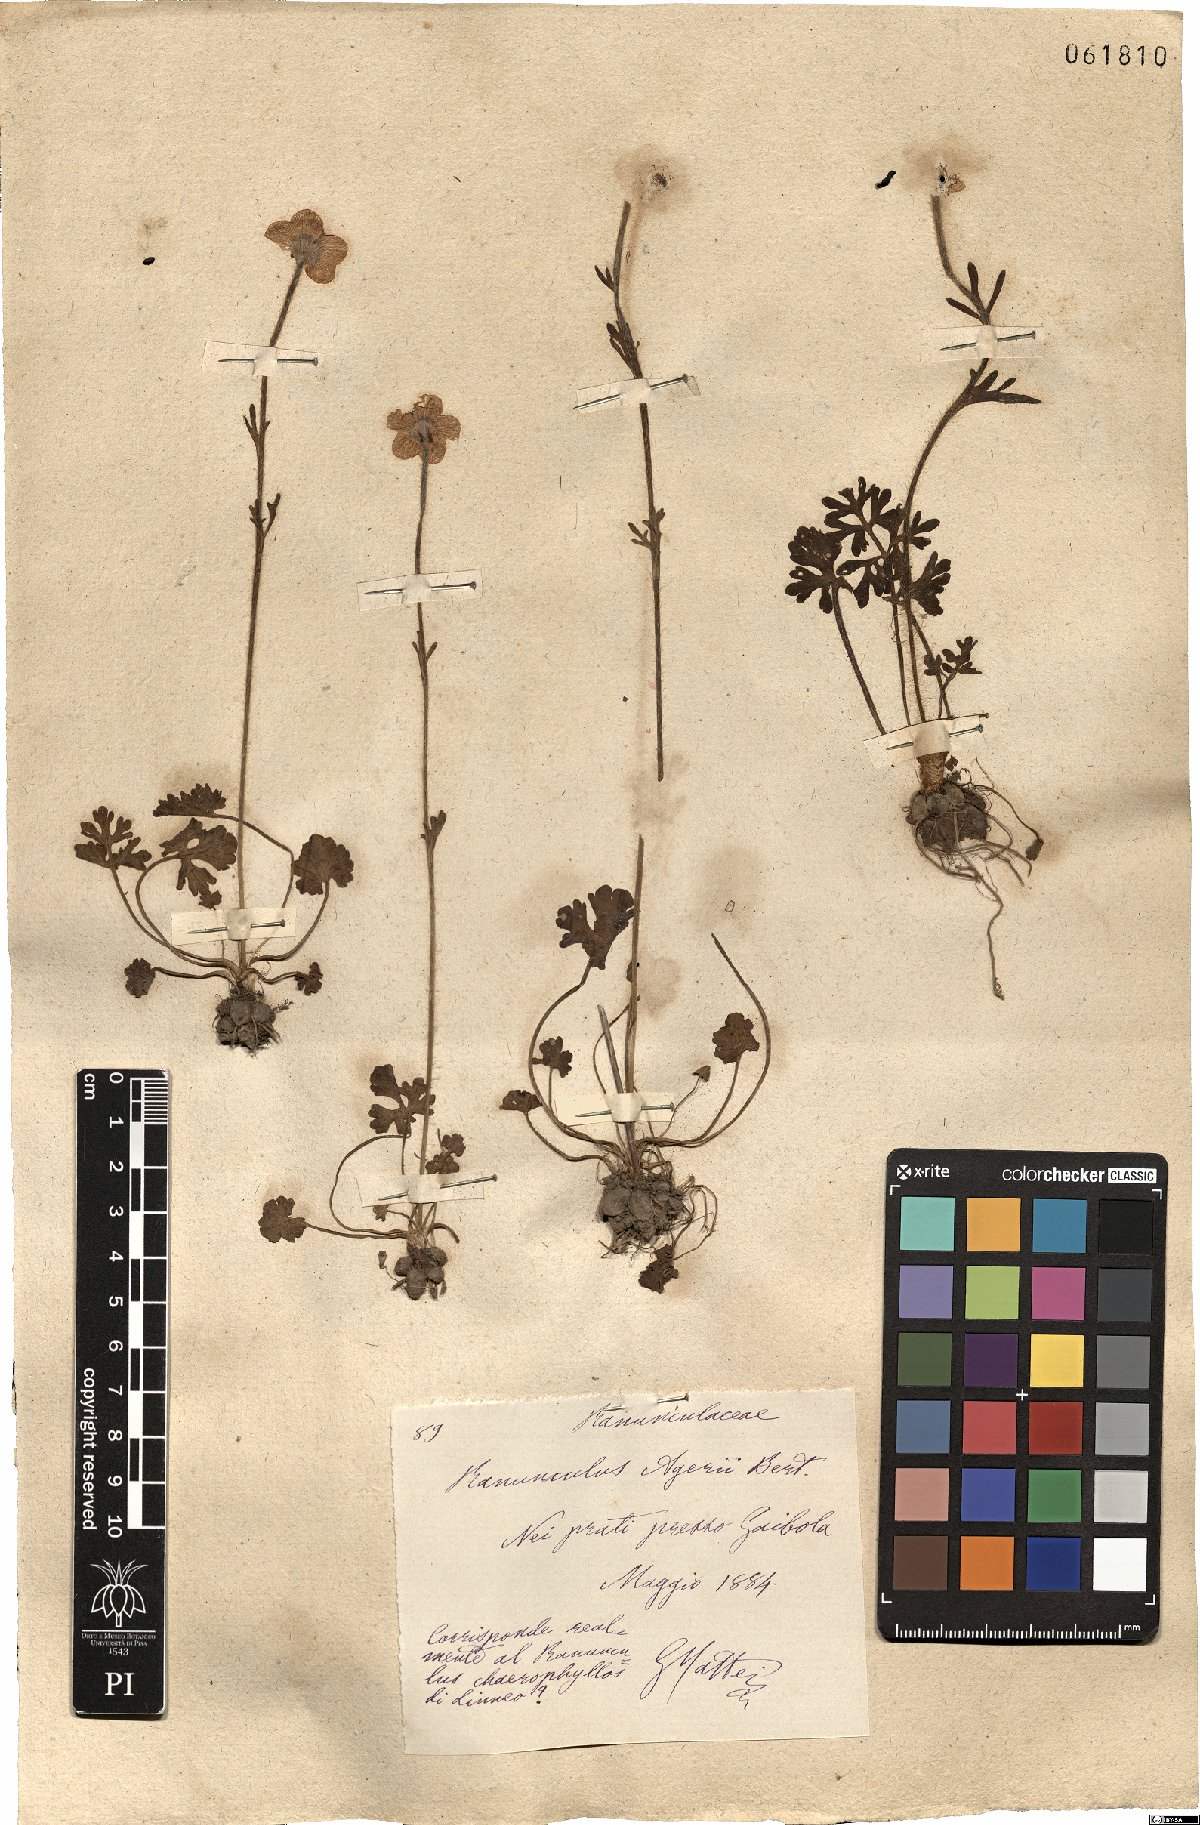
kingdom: Plantae
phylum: Tracheophyta
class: Magnoliopsida
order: Ranunculales
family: Ranunculaceae
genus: Ranunculus
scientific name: Ranunculus gracilis
